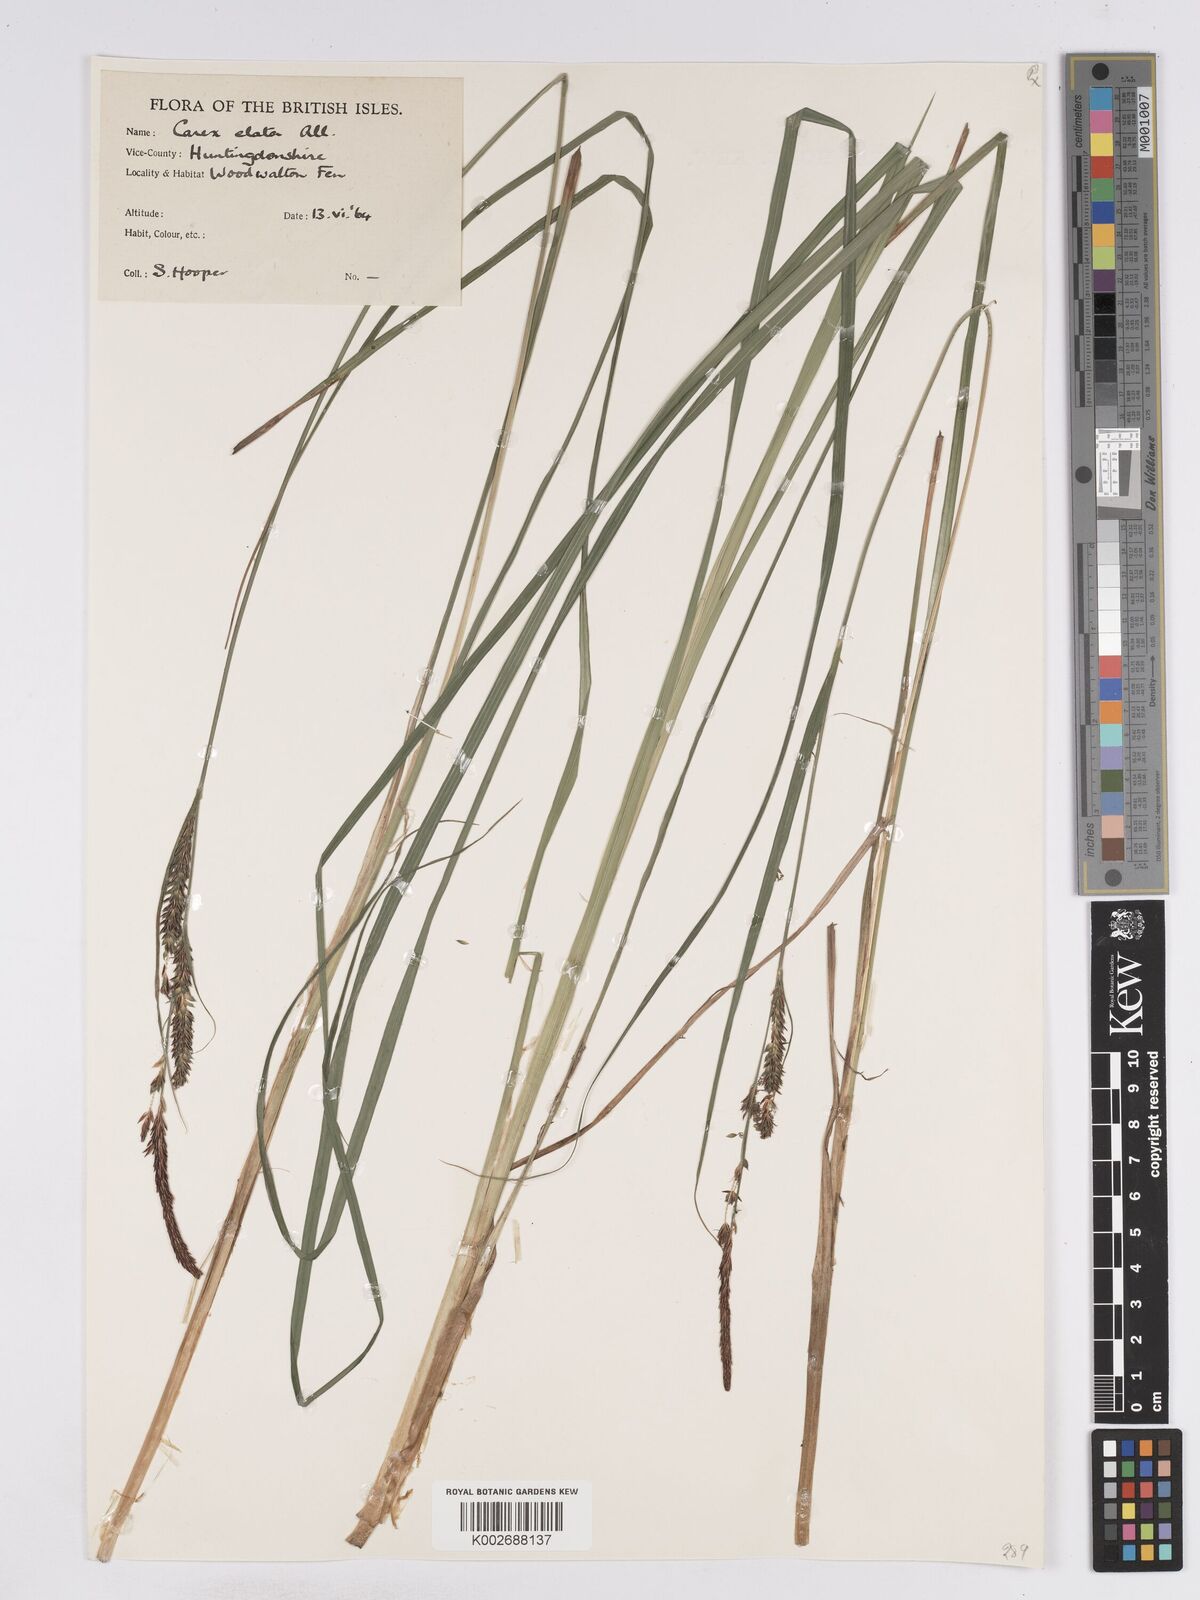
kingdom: Plantae
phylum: Tracheophyta
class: Liliopsida
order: Poales
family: Cyperaceae
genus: Carex
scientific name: Carex elata
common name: Tufted sedge
